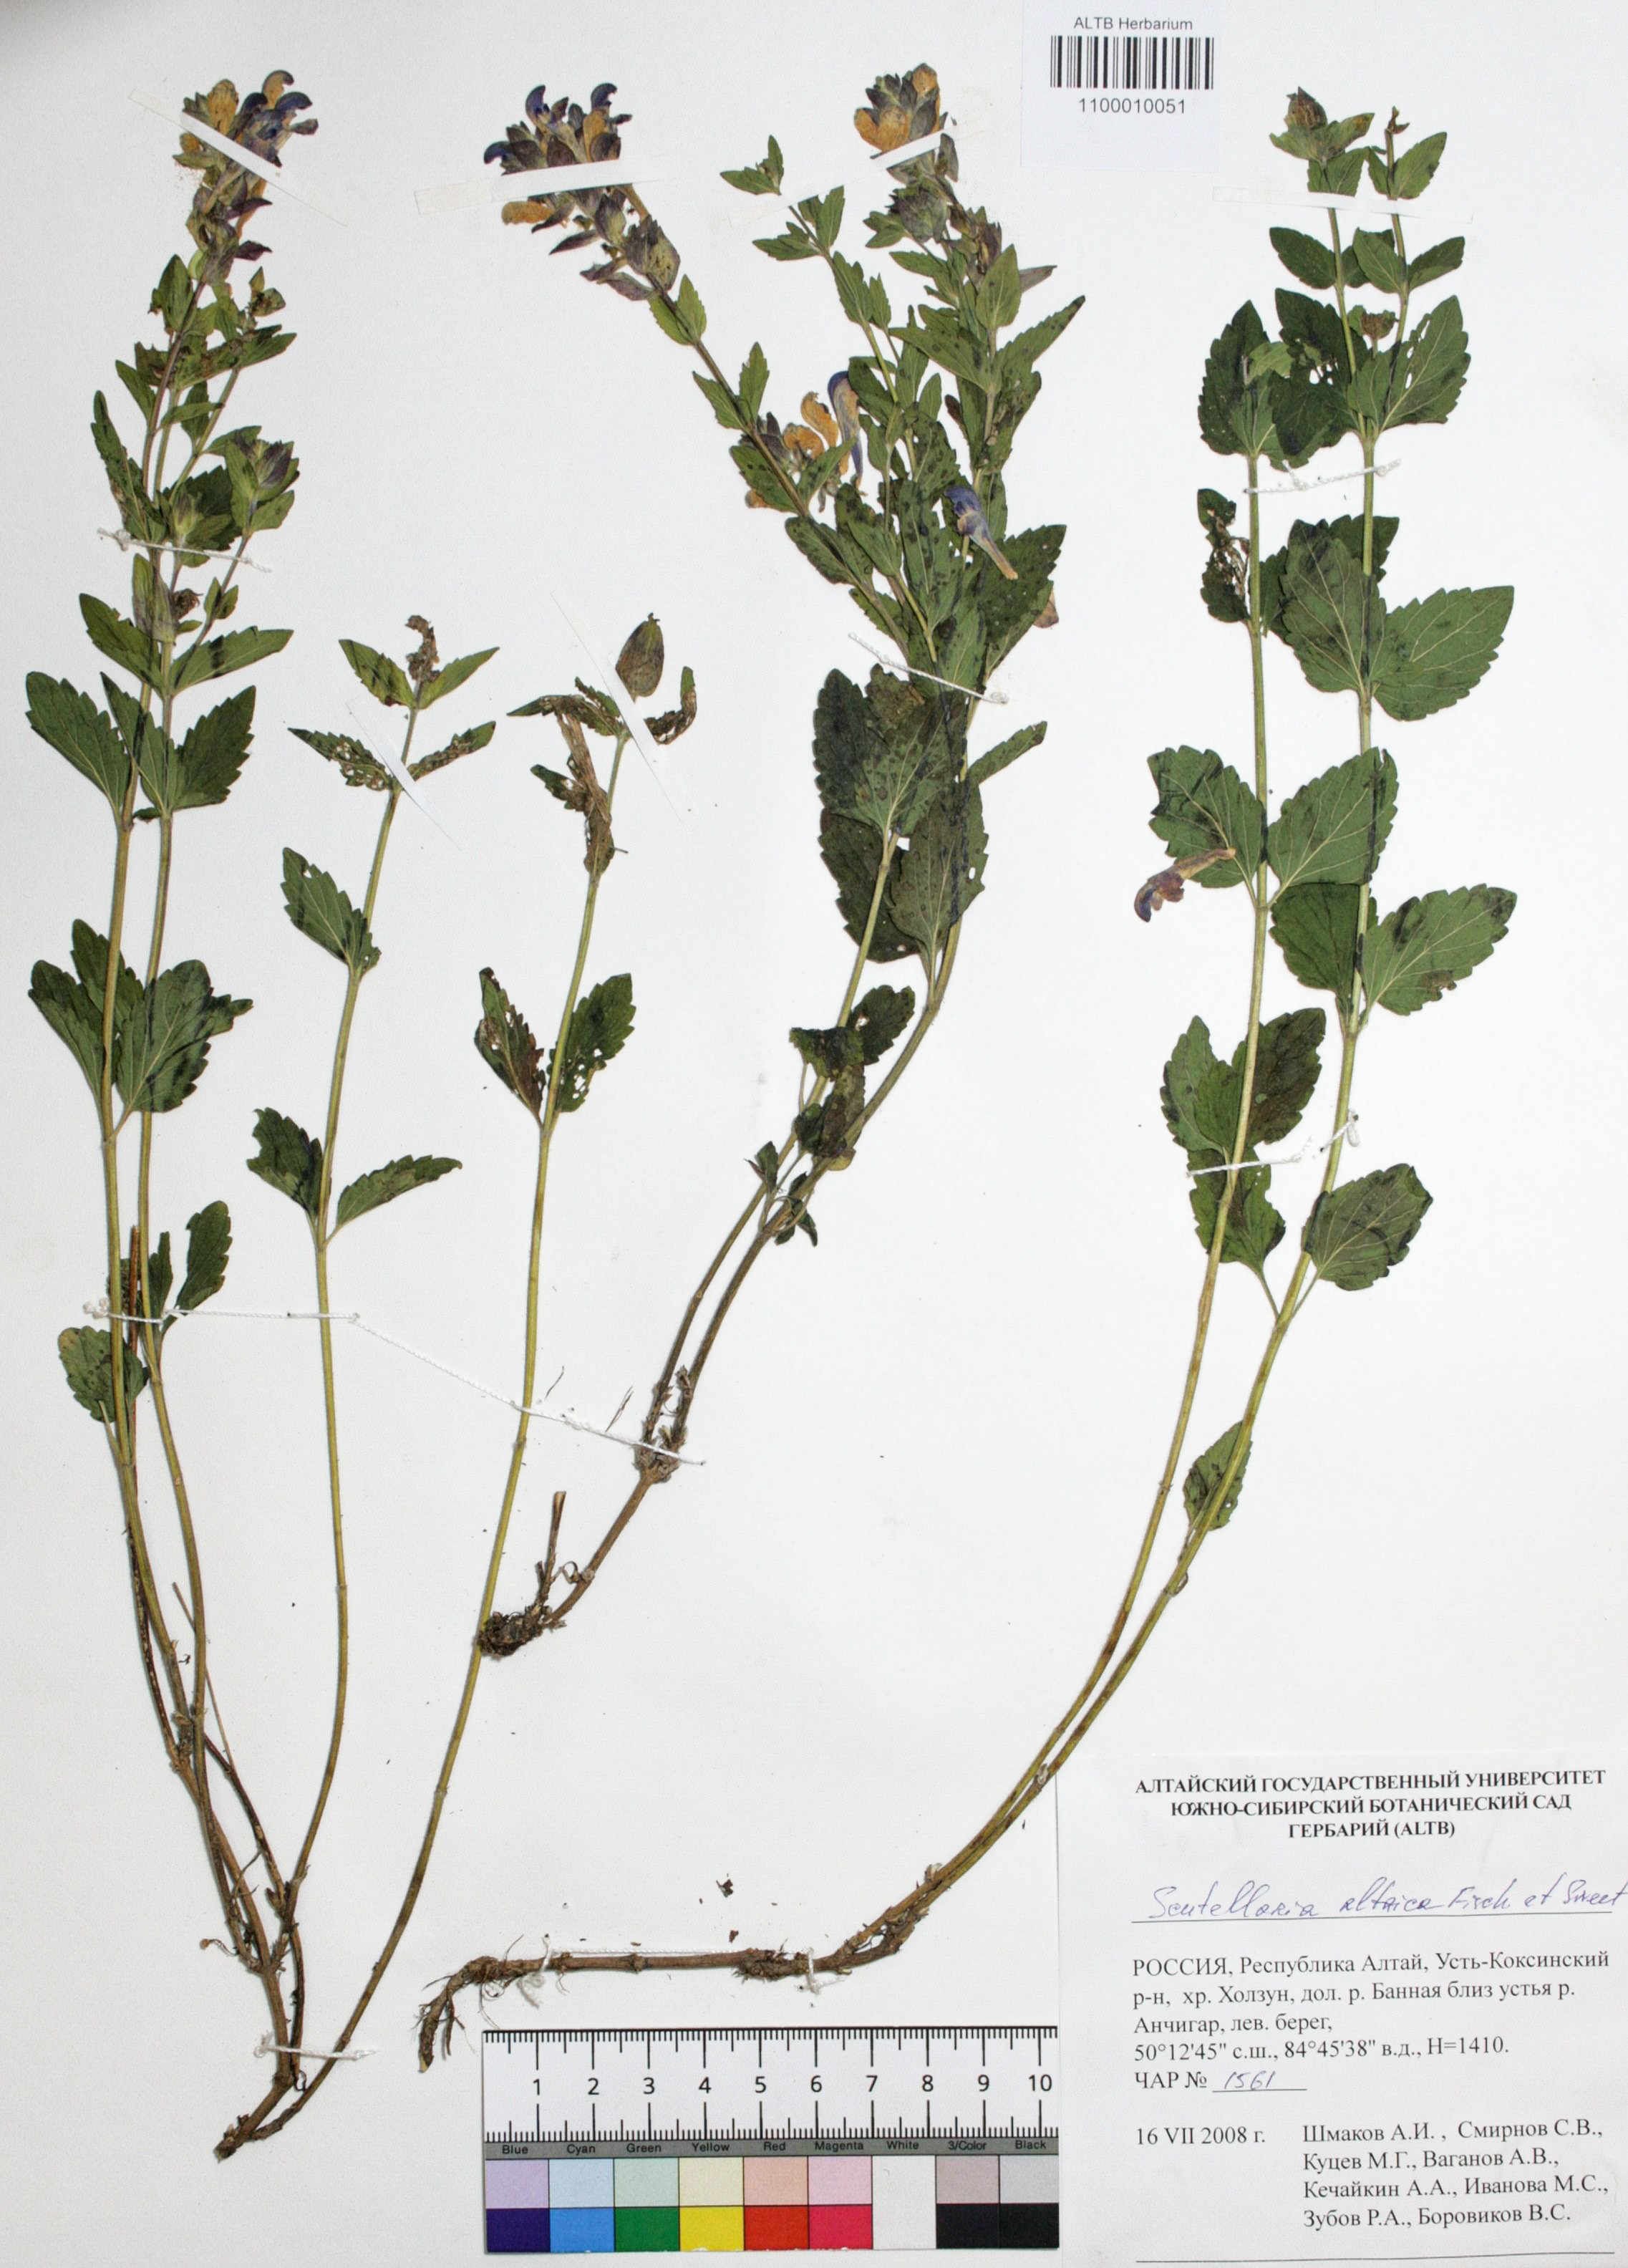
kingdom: Plantae
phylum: Tracheophyta
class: Magnoliopsida
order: Lamiales
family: Lamiaceae
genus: Scutellaria
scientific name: Scutellaria altaica
